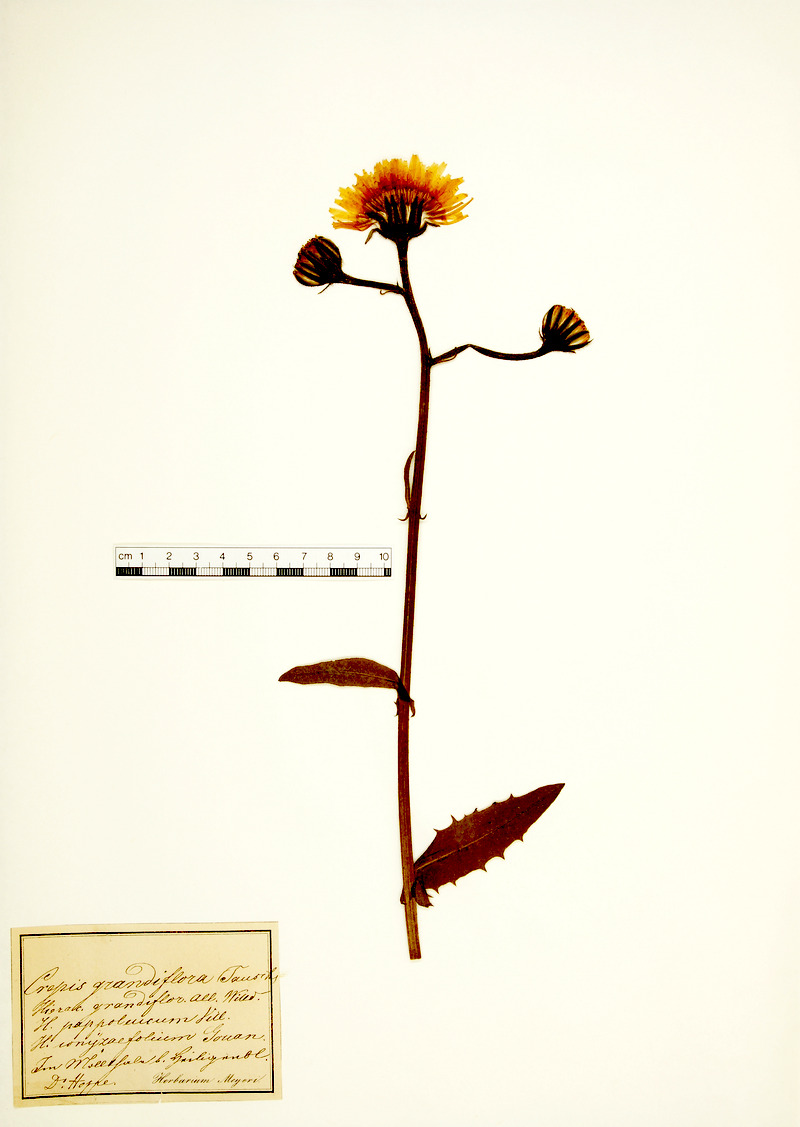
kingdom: Plantae
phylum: Tracheophyta
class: Magnoliopsida
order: Asterales
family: Asteraceae
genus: Crepis
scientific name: Crepis blattarioides
